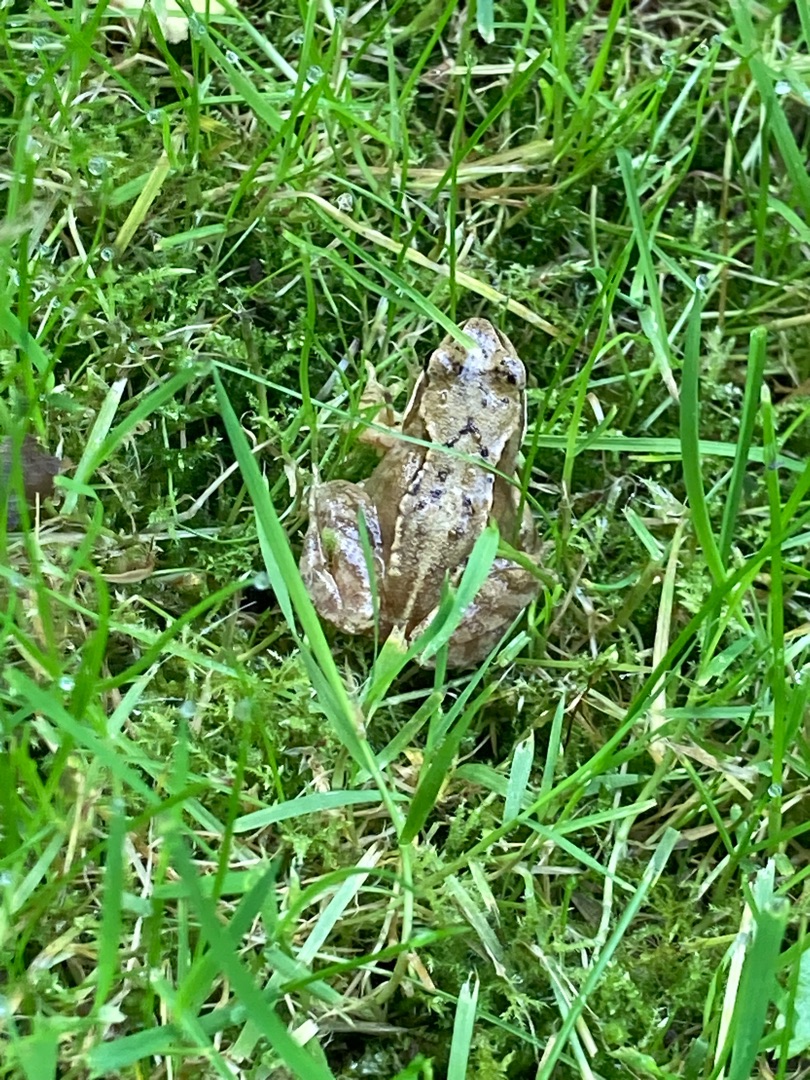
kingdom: Animalia
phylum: Chordata
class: Amphibia
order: Anura
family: Ranidae
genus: Rana
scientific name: Rana temporaria
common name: Butsnudet frø
